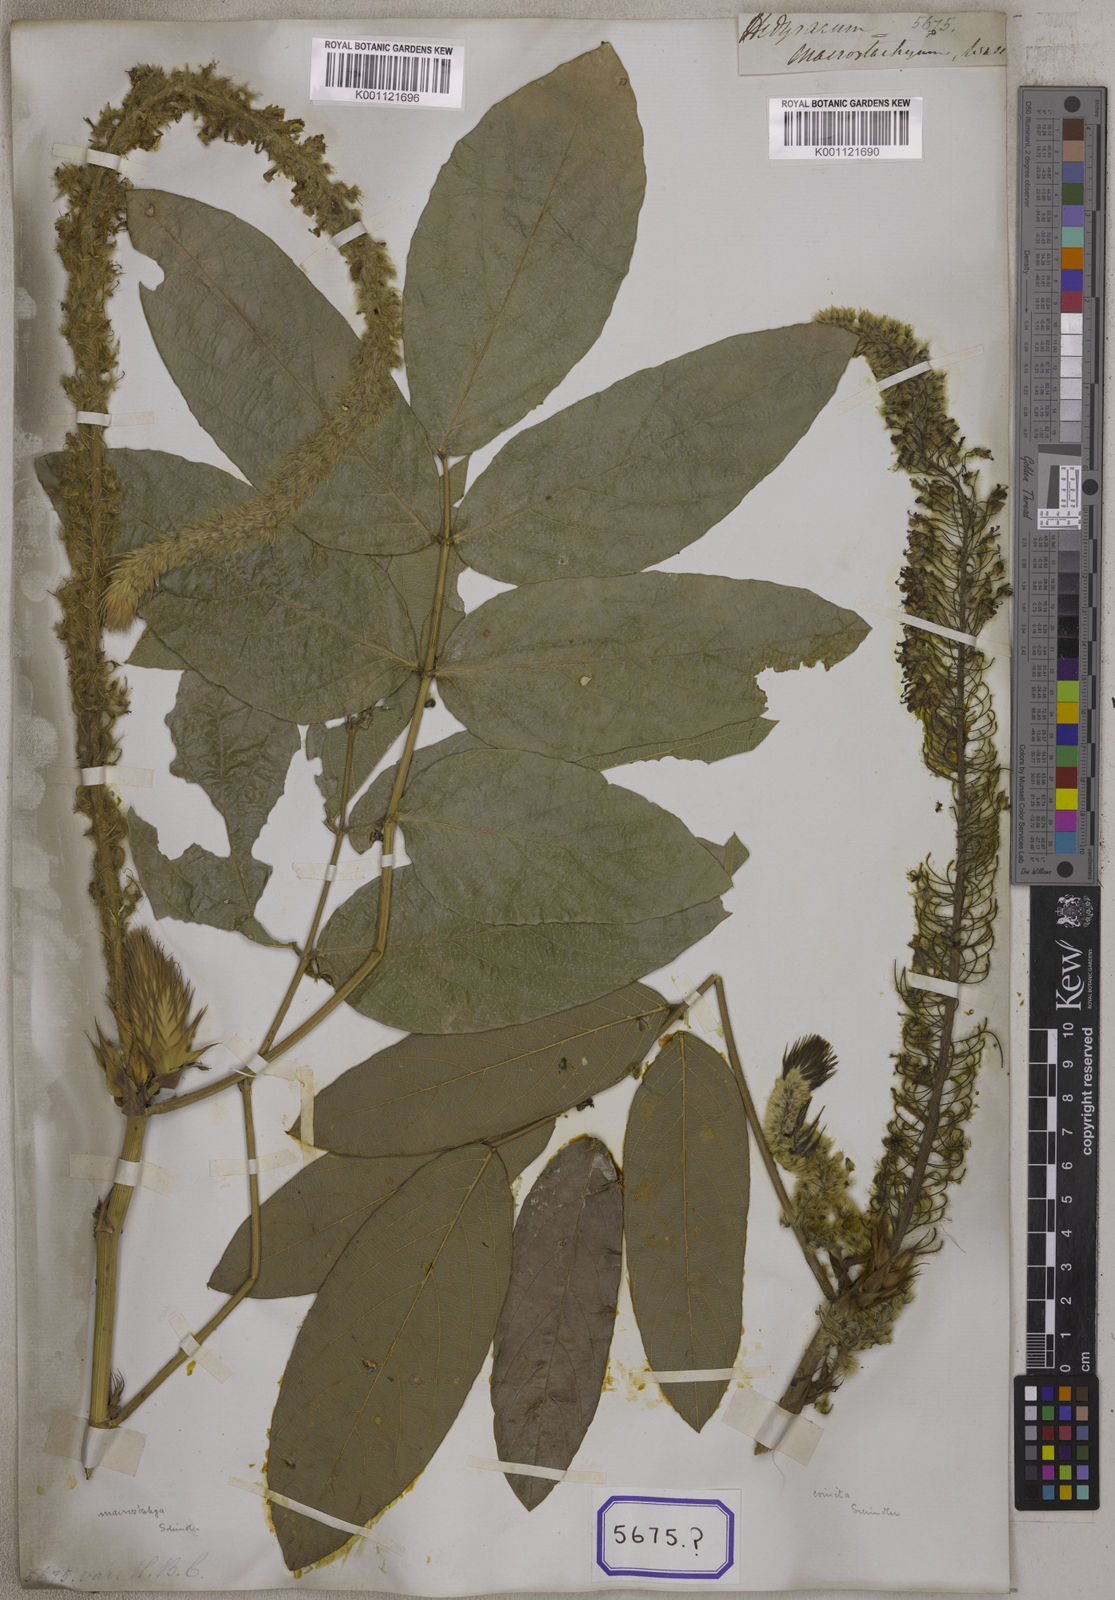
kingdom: Plantae
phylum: Tracheophyta
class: Magnoliopsida
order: Fabales
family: Fabaceae
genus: Uraria
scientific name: Uraria
